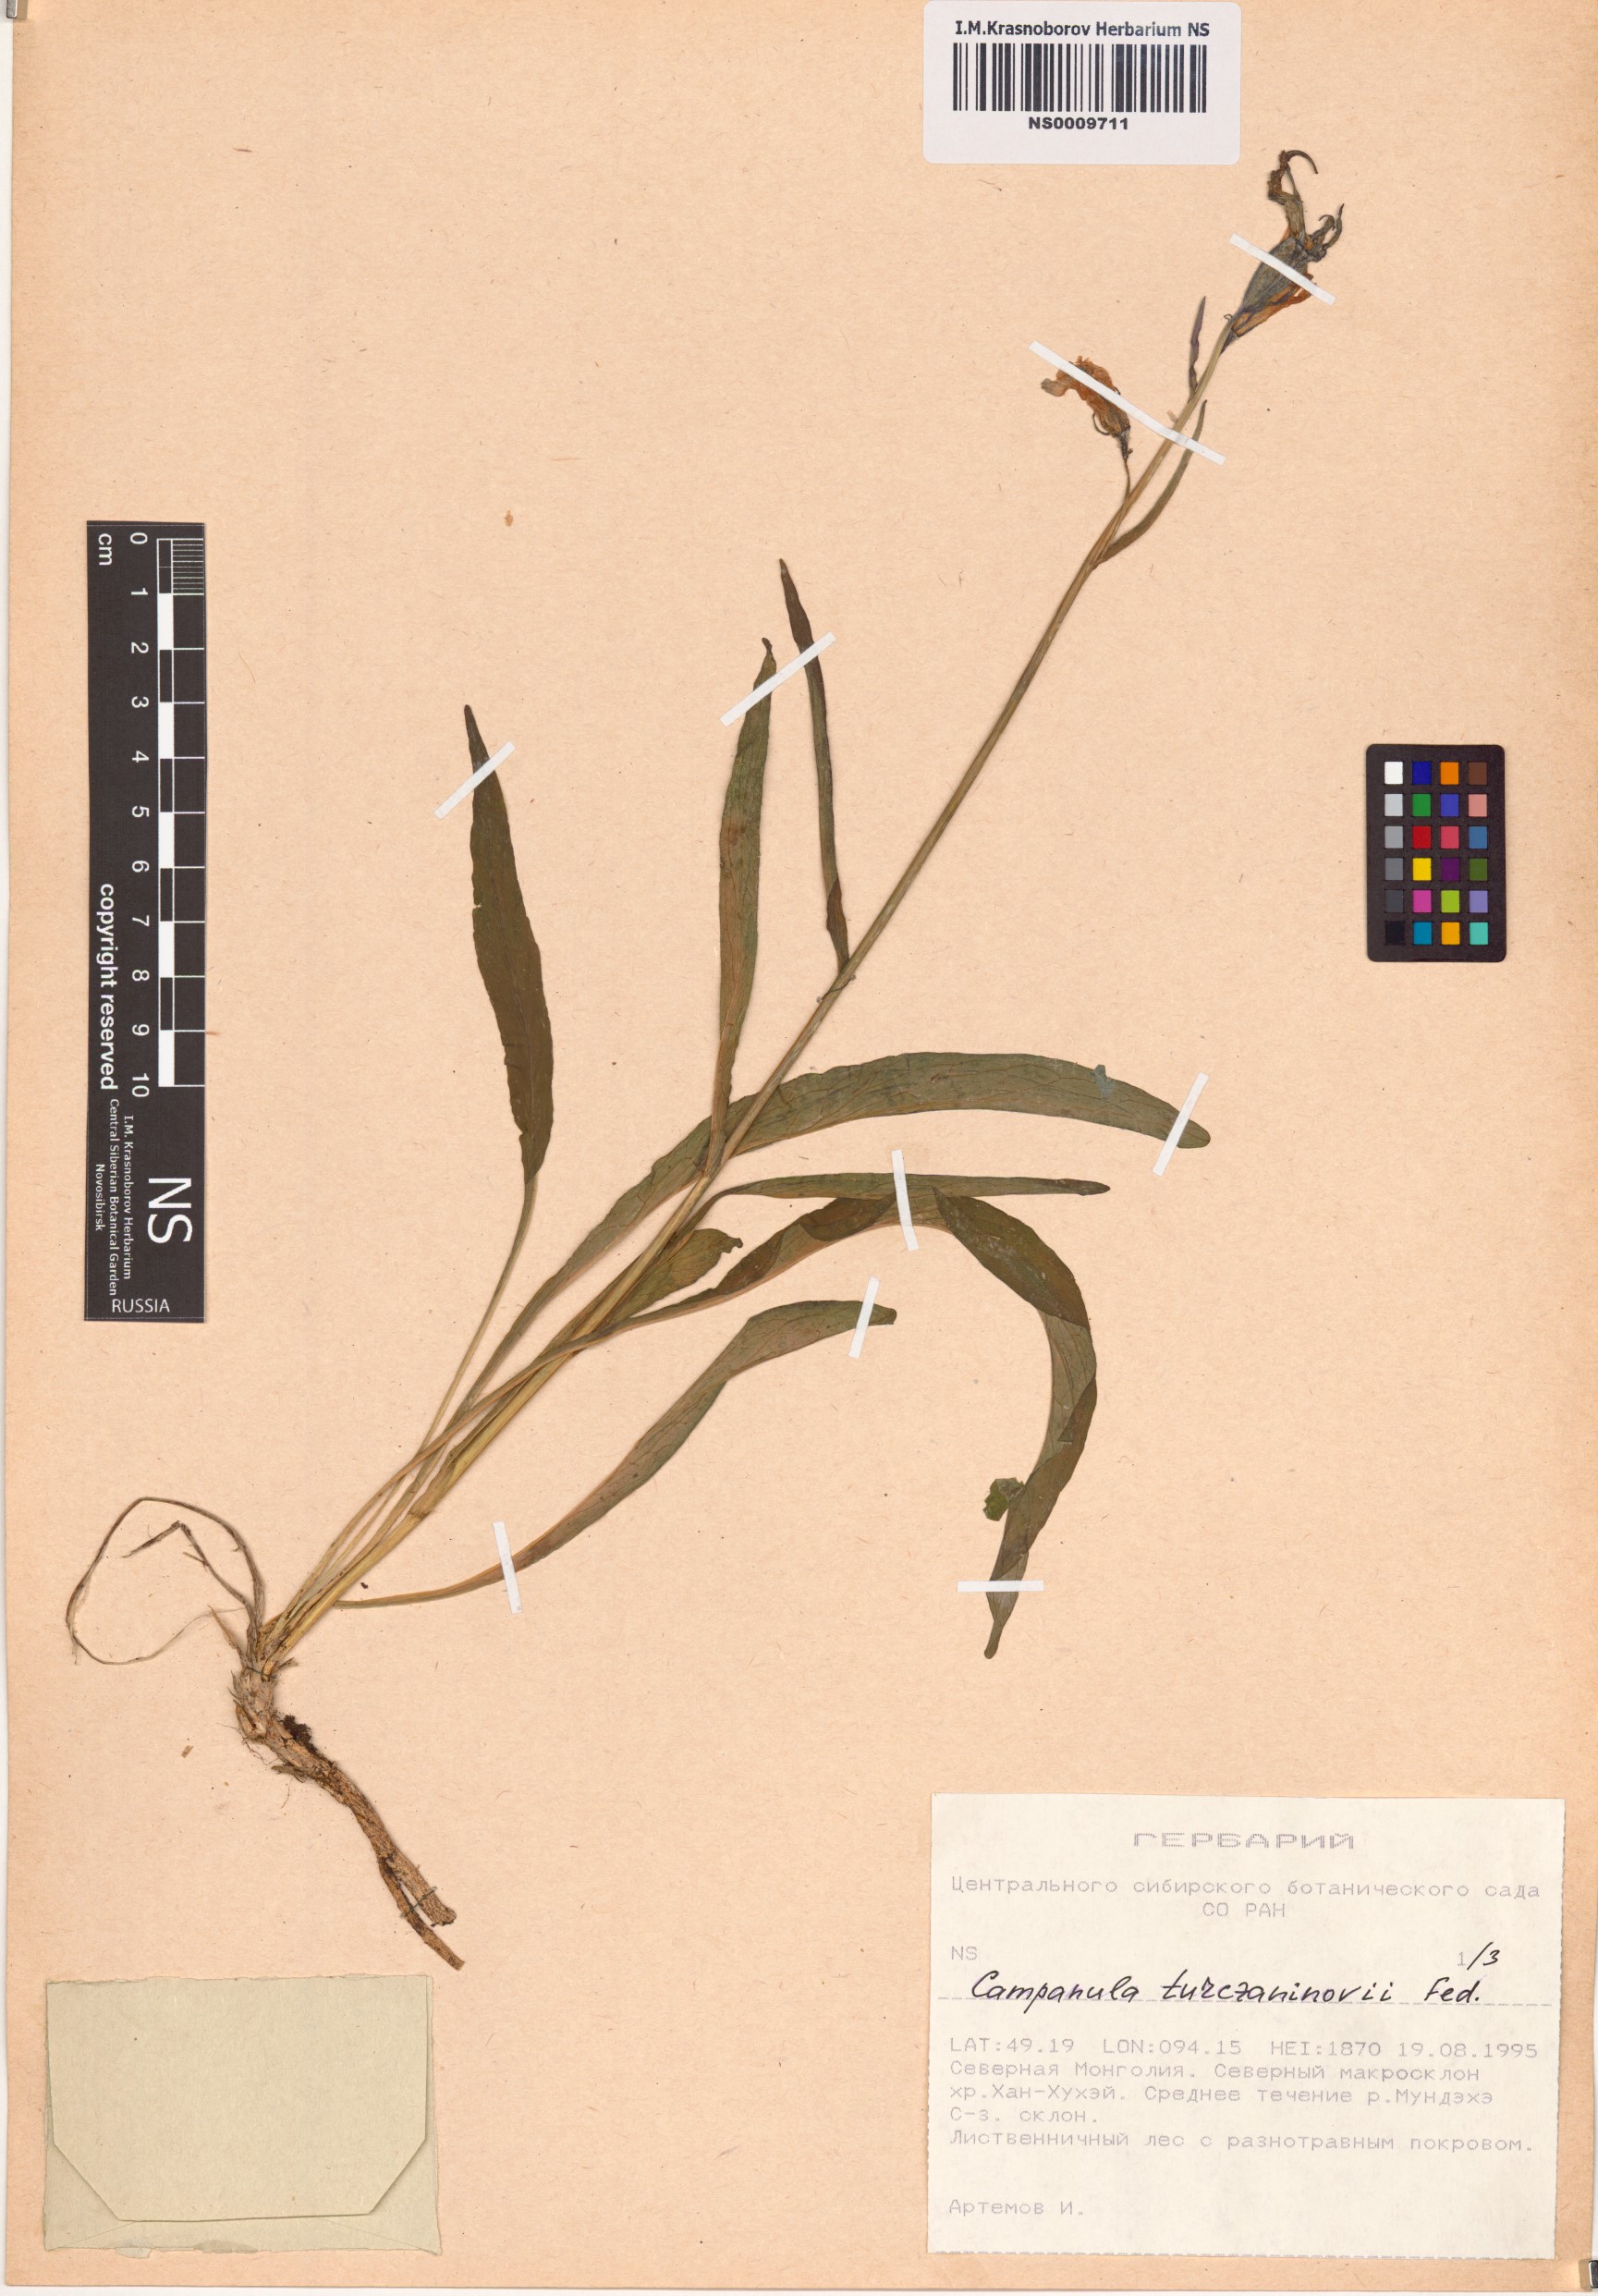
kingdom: Plantae
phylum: Tracheophyta
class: Magnoliopsida
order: Asterales
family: Campanulaceae
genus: Campanula
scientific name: Campanula stevenii
